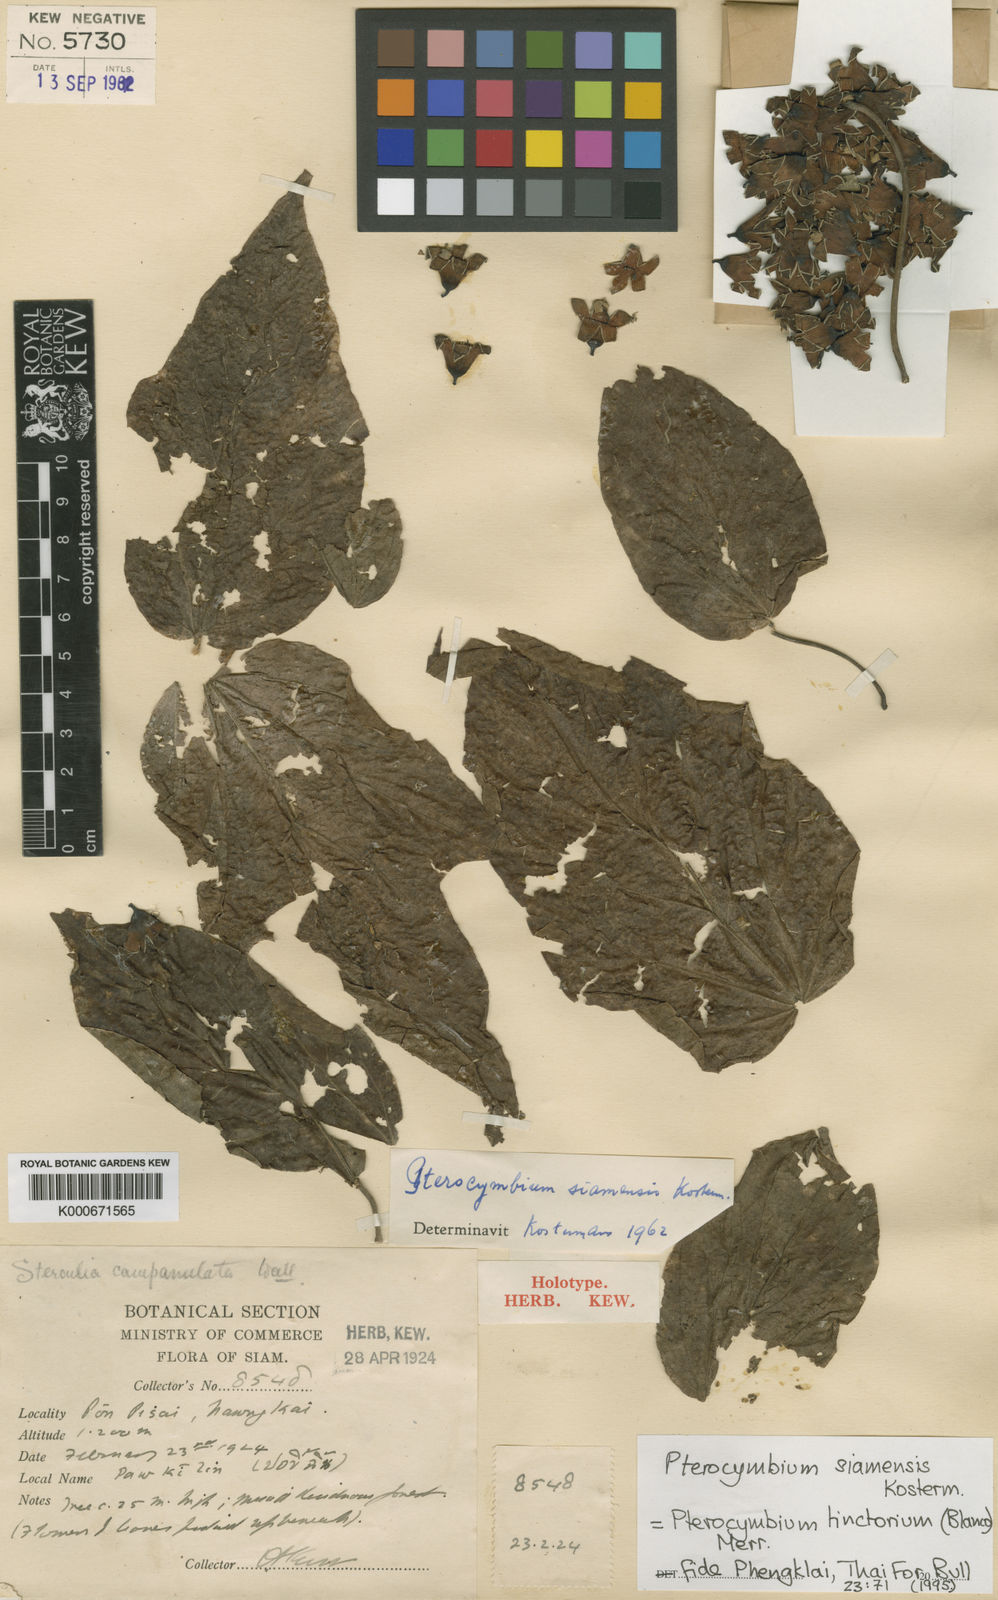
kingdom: Plantae
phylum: Tracheophyta
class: Magnoliopsida
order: Malvales
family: Malvaceae
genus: Pterocymbium
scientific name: Pterocymbium tinctorium
